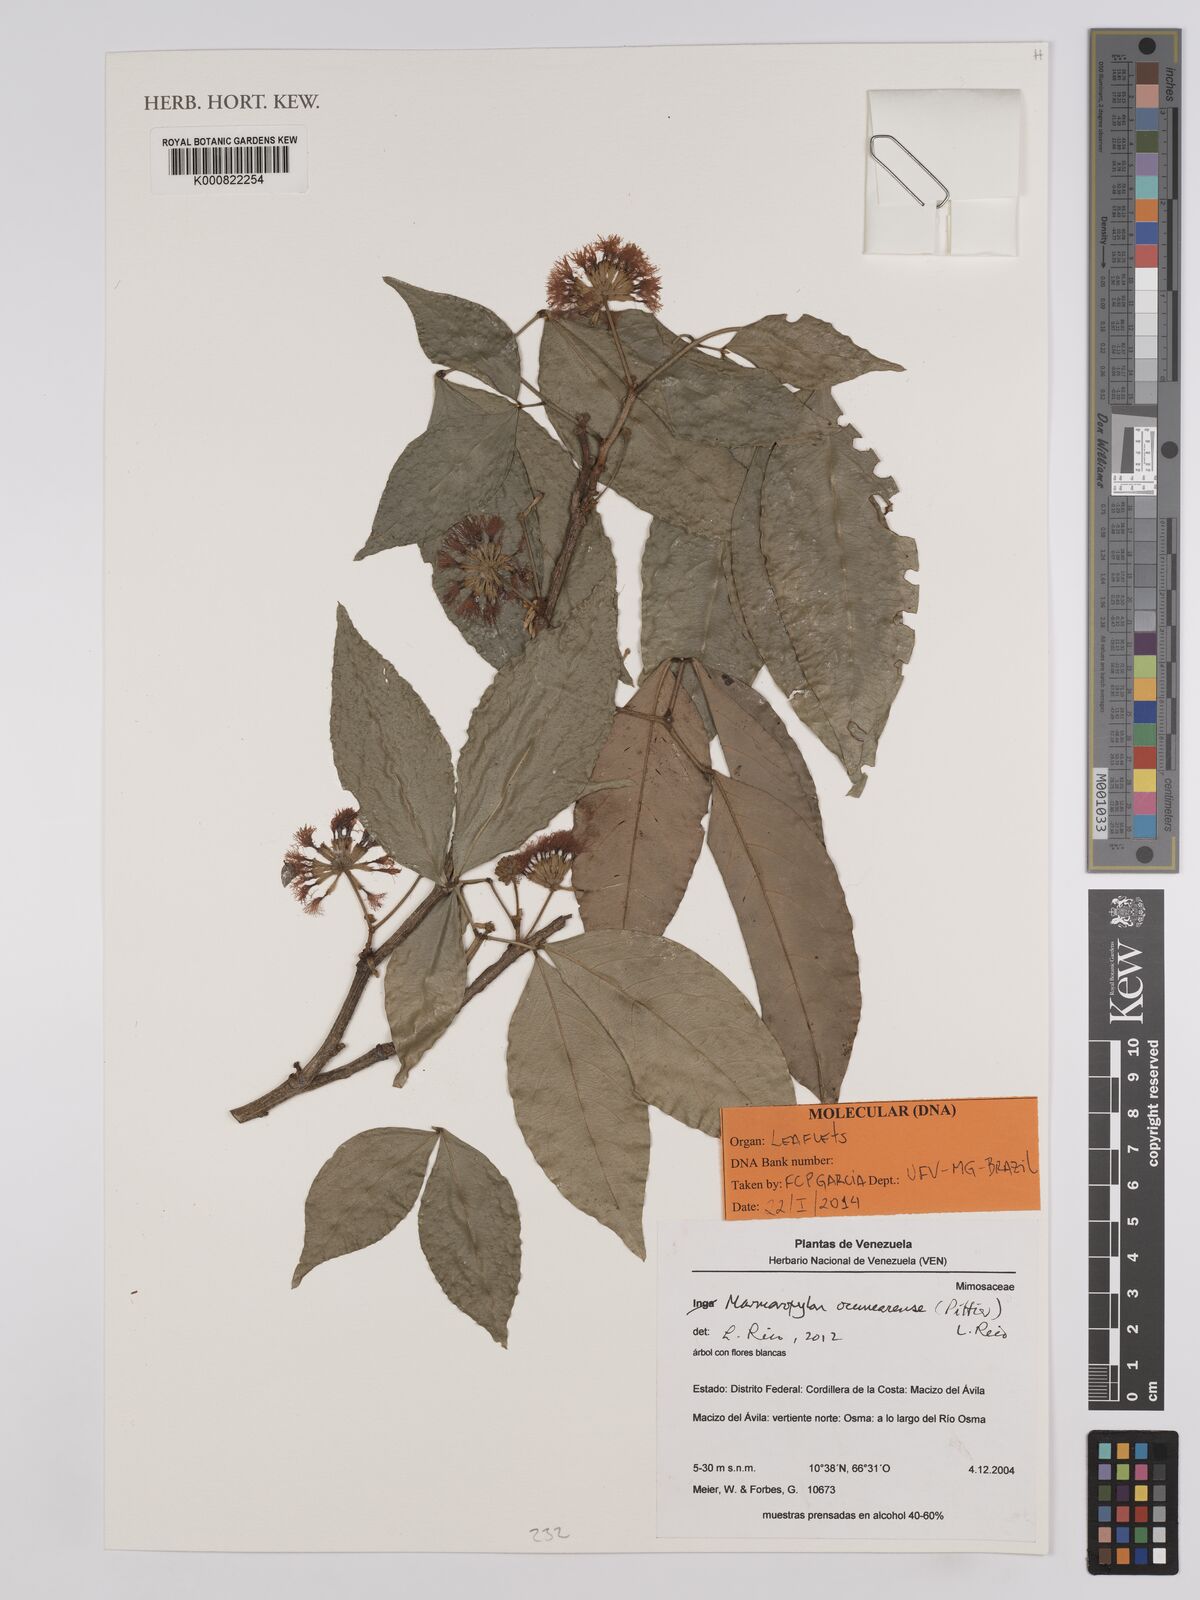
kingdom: Plantae
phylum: Tracheophyta
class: Magnoliopsida
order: Fabales
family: Fabaceae
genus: Zygia
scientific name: Zygia ocumarensis
